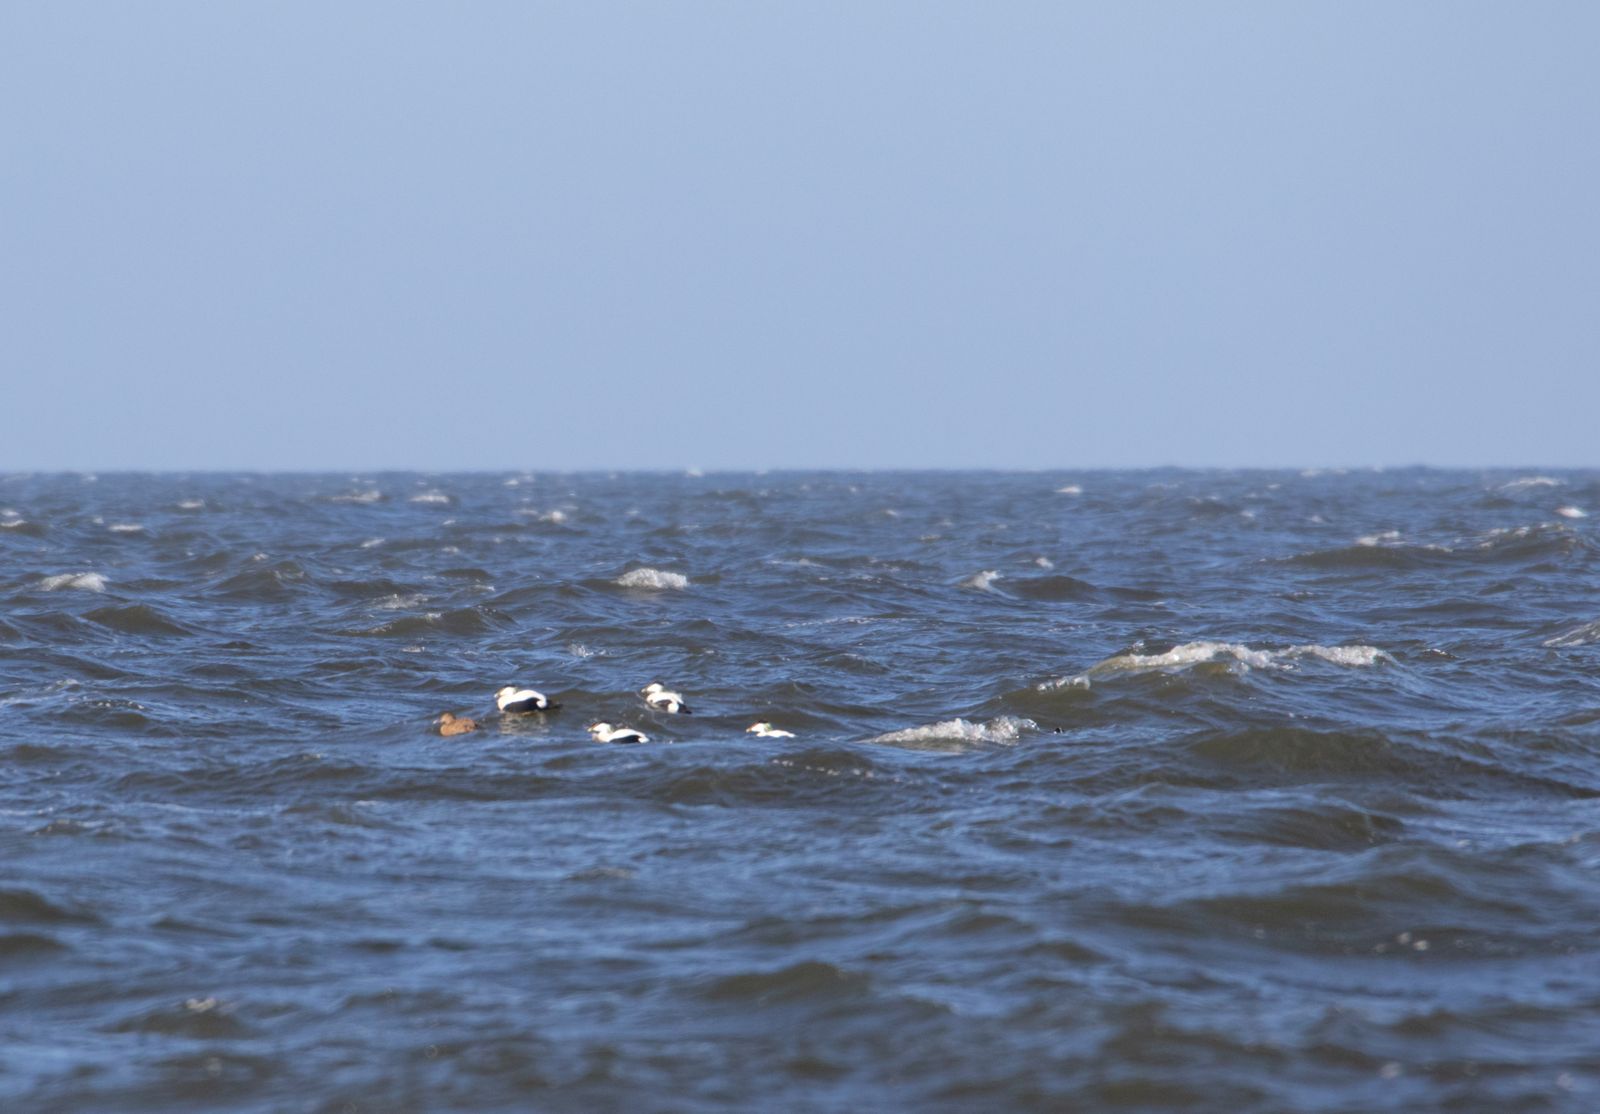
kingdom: Animalia
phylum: Chordata
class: Aves
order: Anseriformes
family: Anatidae
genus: Somateria
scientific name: Somateria mollissima
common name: Common eider
